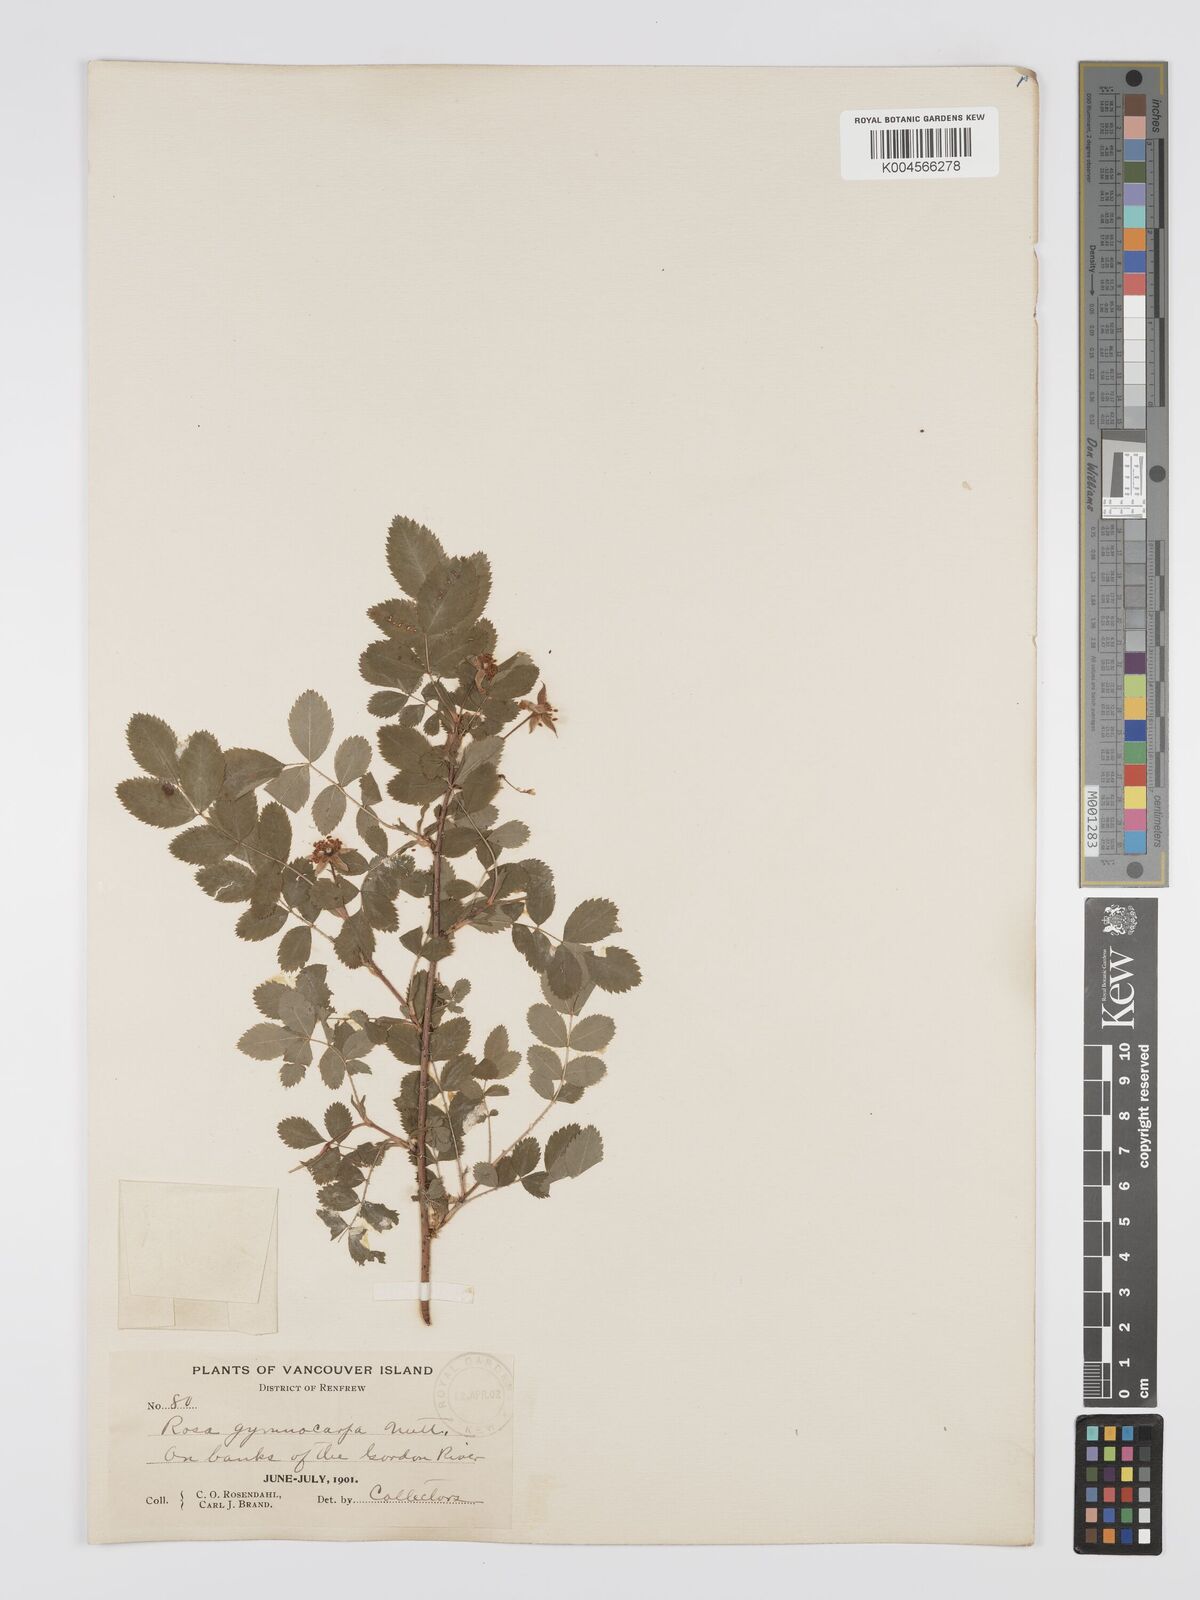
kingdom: Plantae
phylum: Tracheophyta
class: Magnoliopsida
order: Rosales
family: Rosaceae
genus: Rosa
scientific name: Rosa gymnocarpa
